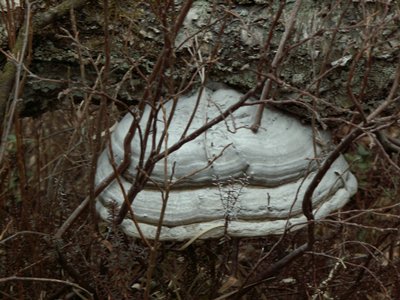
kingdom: Fungi
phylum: Basidiomycota
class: Agaricomycetes
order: Polyporales
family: Polyporaceae
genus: Fomes
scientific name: Fomes fomentarius
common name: tøndersvamp
